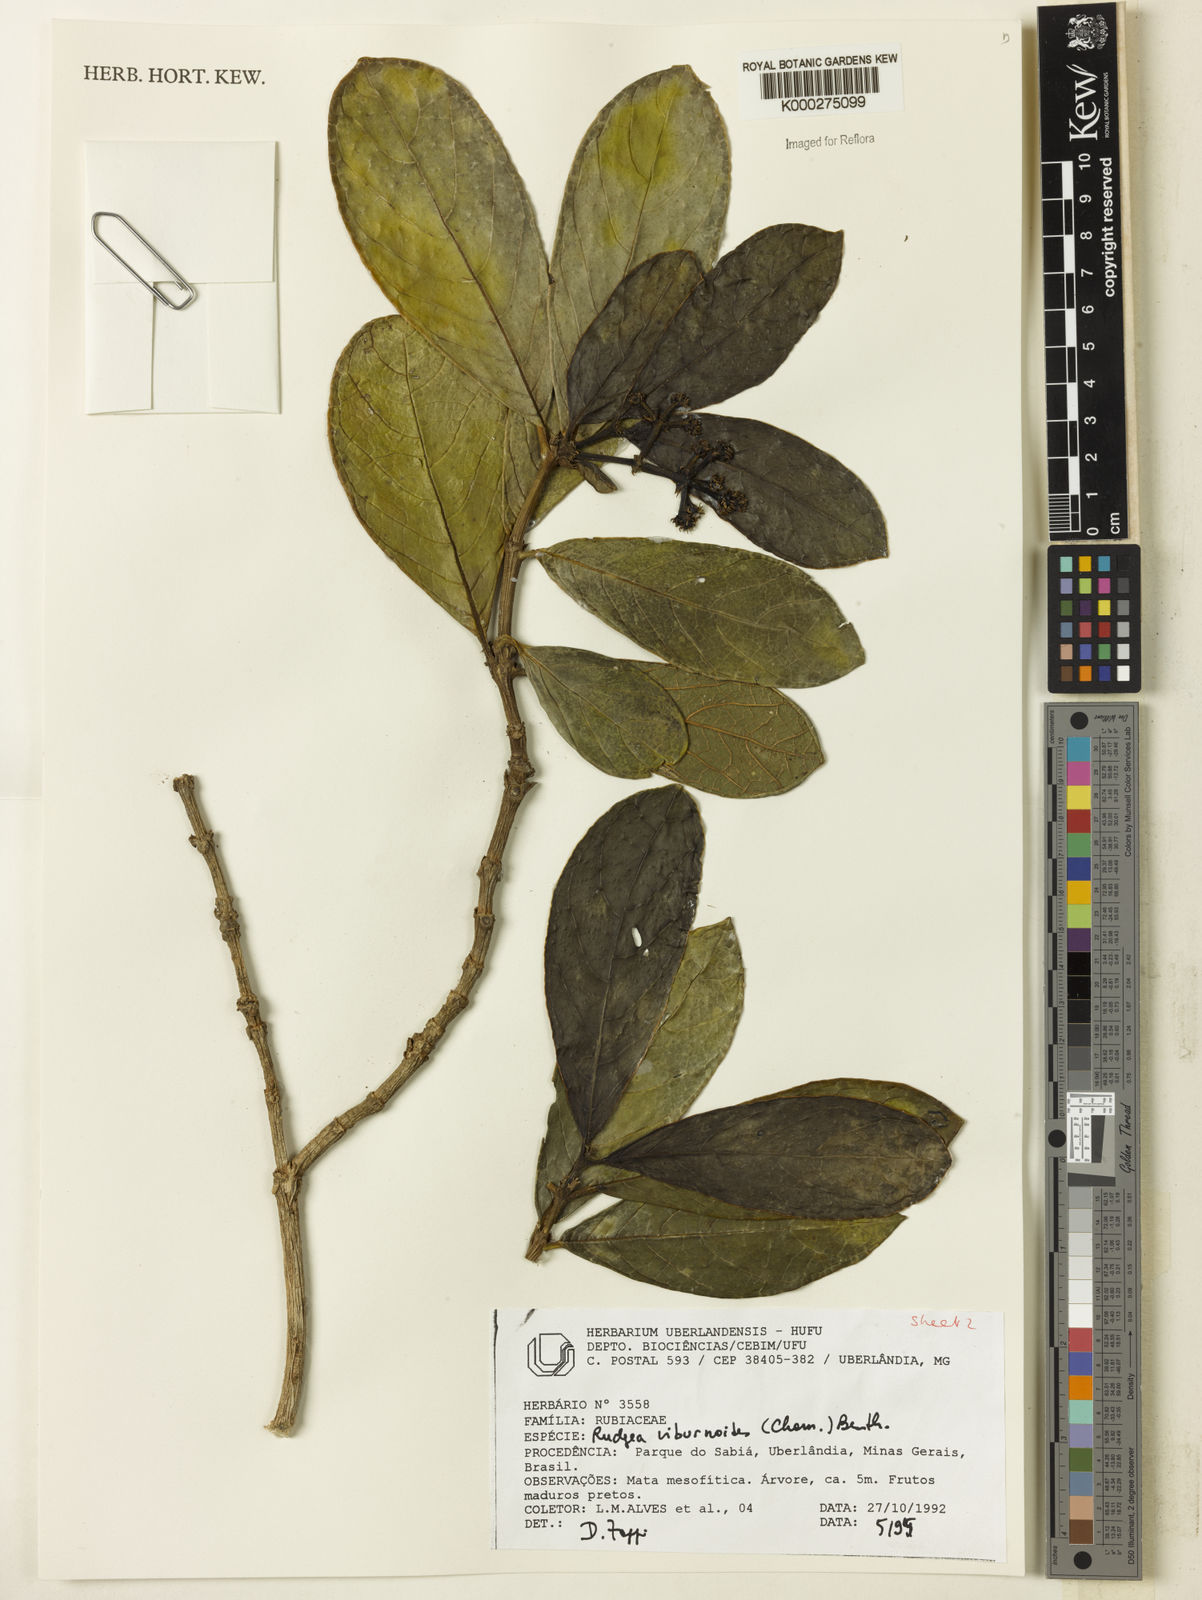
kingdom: Plantae
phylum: Tracheophyta
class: Magnoliopsida
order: Gentianales
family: Rubiaceae
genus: Rudgea
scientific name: Rudgea viburnoides
